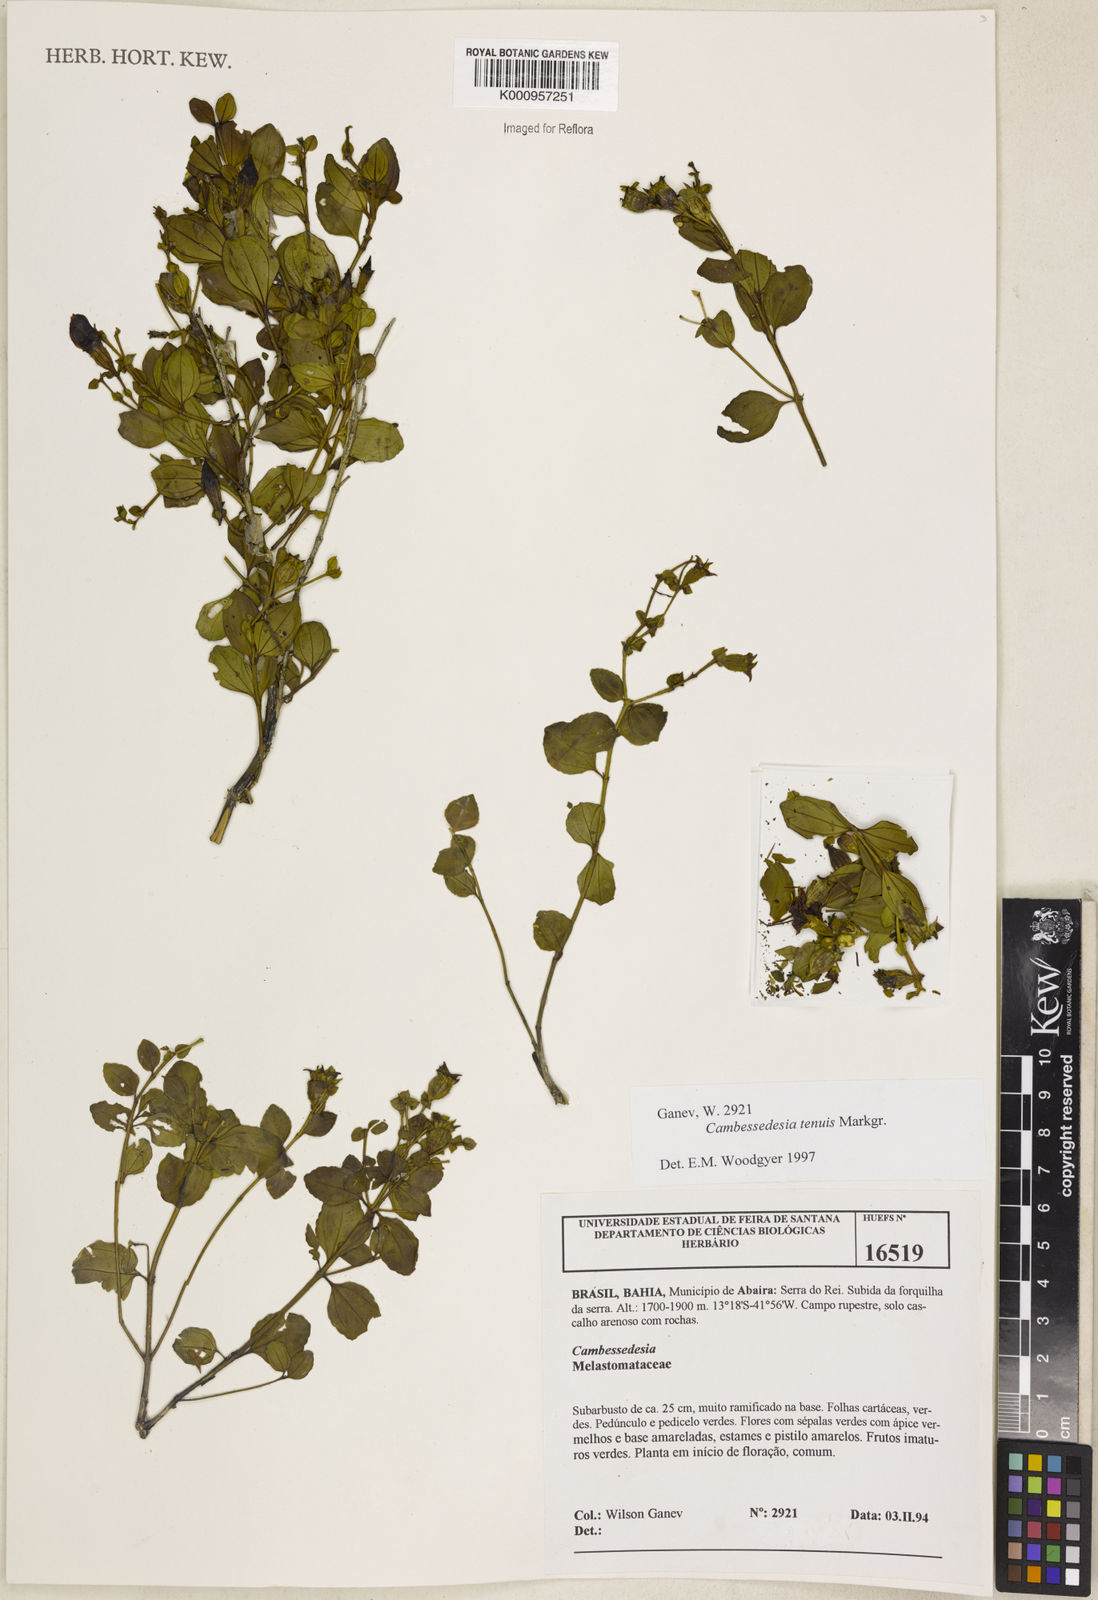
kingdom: Plantae
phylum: Tracheophyta
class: Magnoliopsida
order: Myrtales
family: Melastomataceae
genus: Cambessedesia
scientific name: Cambessedesia tenuis
